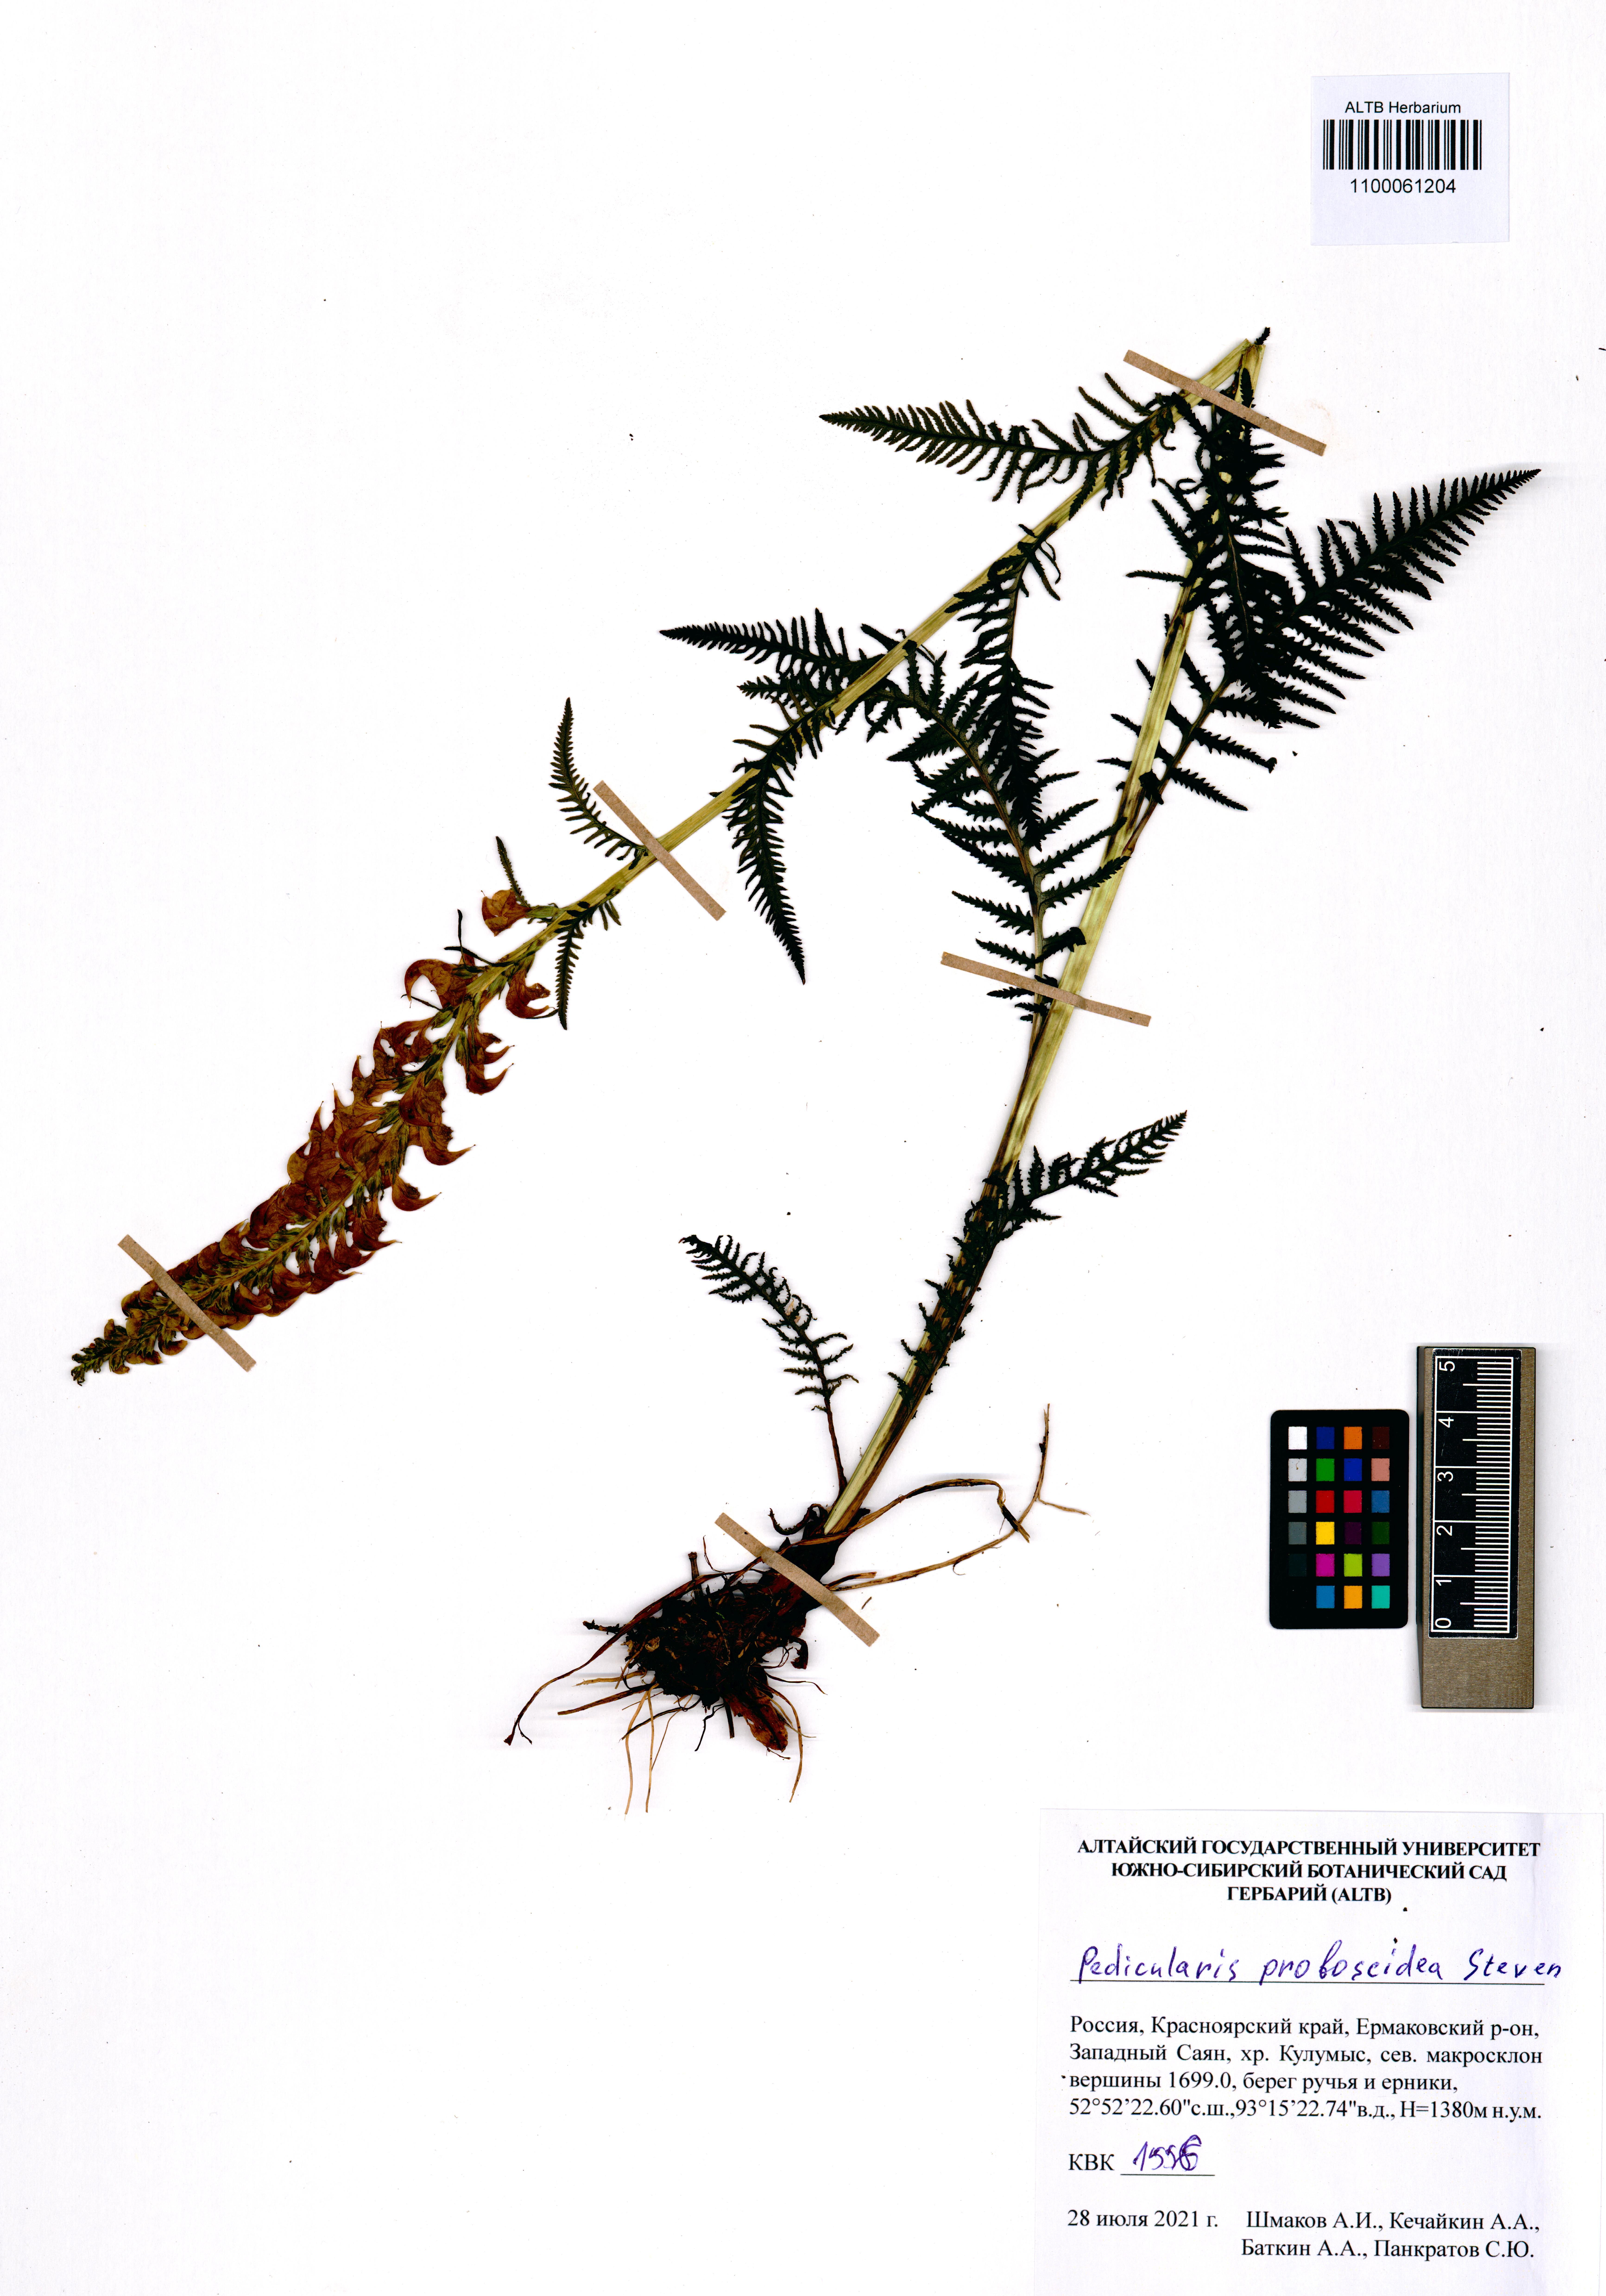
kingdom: Plantae
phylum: Tracheophyta
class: Magnoliopsida
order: Lamiales
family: Orobanchaceae
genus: Pedicularis
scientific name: Pedicularis proboscidea
